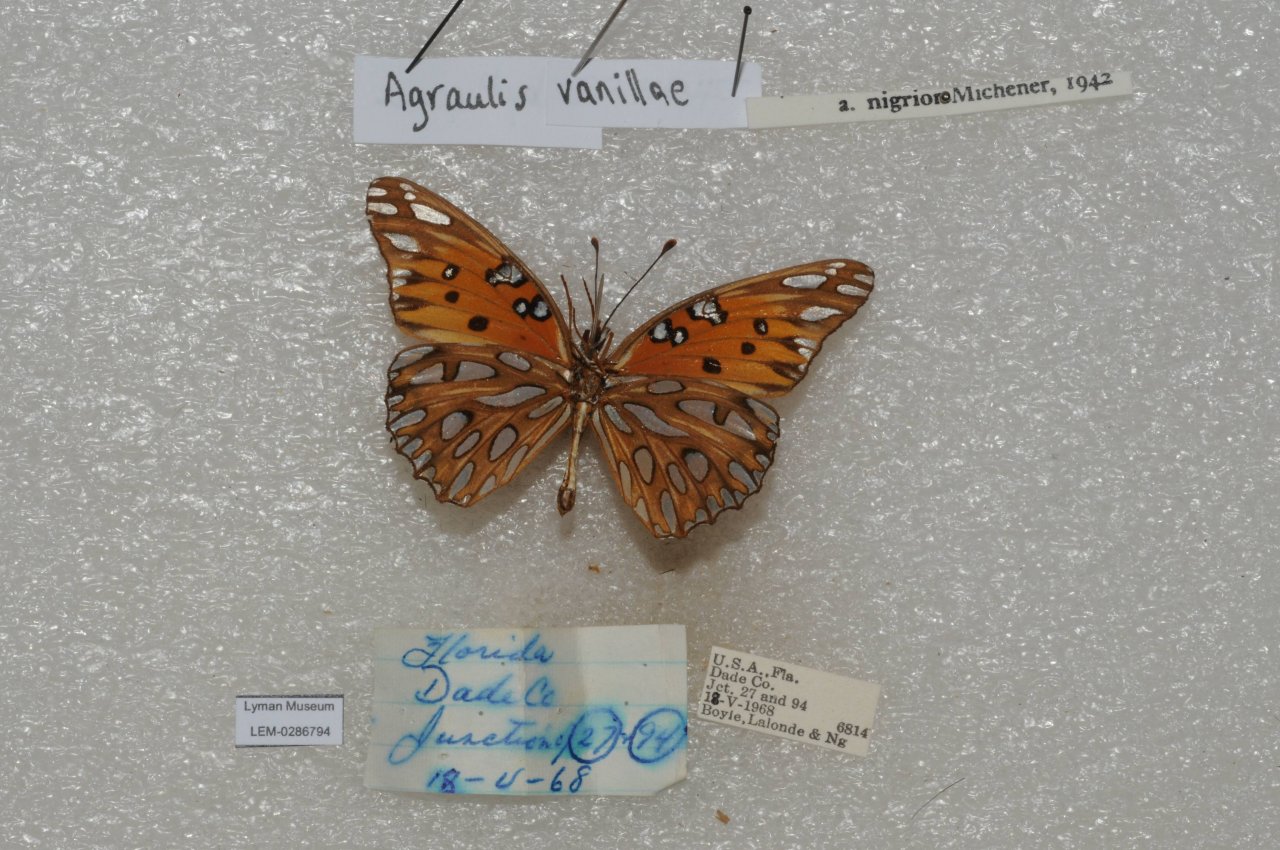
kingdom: Animalia
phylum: Arthropoda
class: Insecta
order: Lepidoptera
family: Nymphalidae
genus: Dione
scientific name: Dione vanillae
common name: Gulf Fritillary
